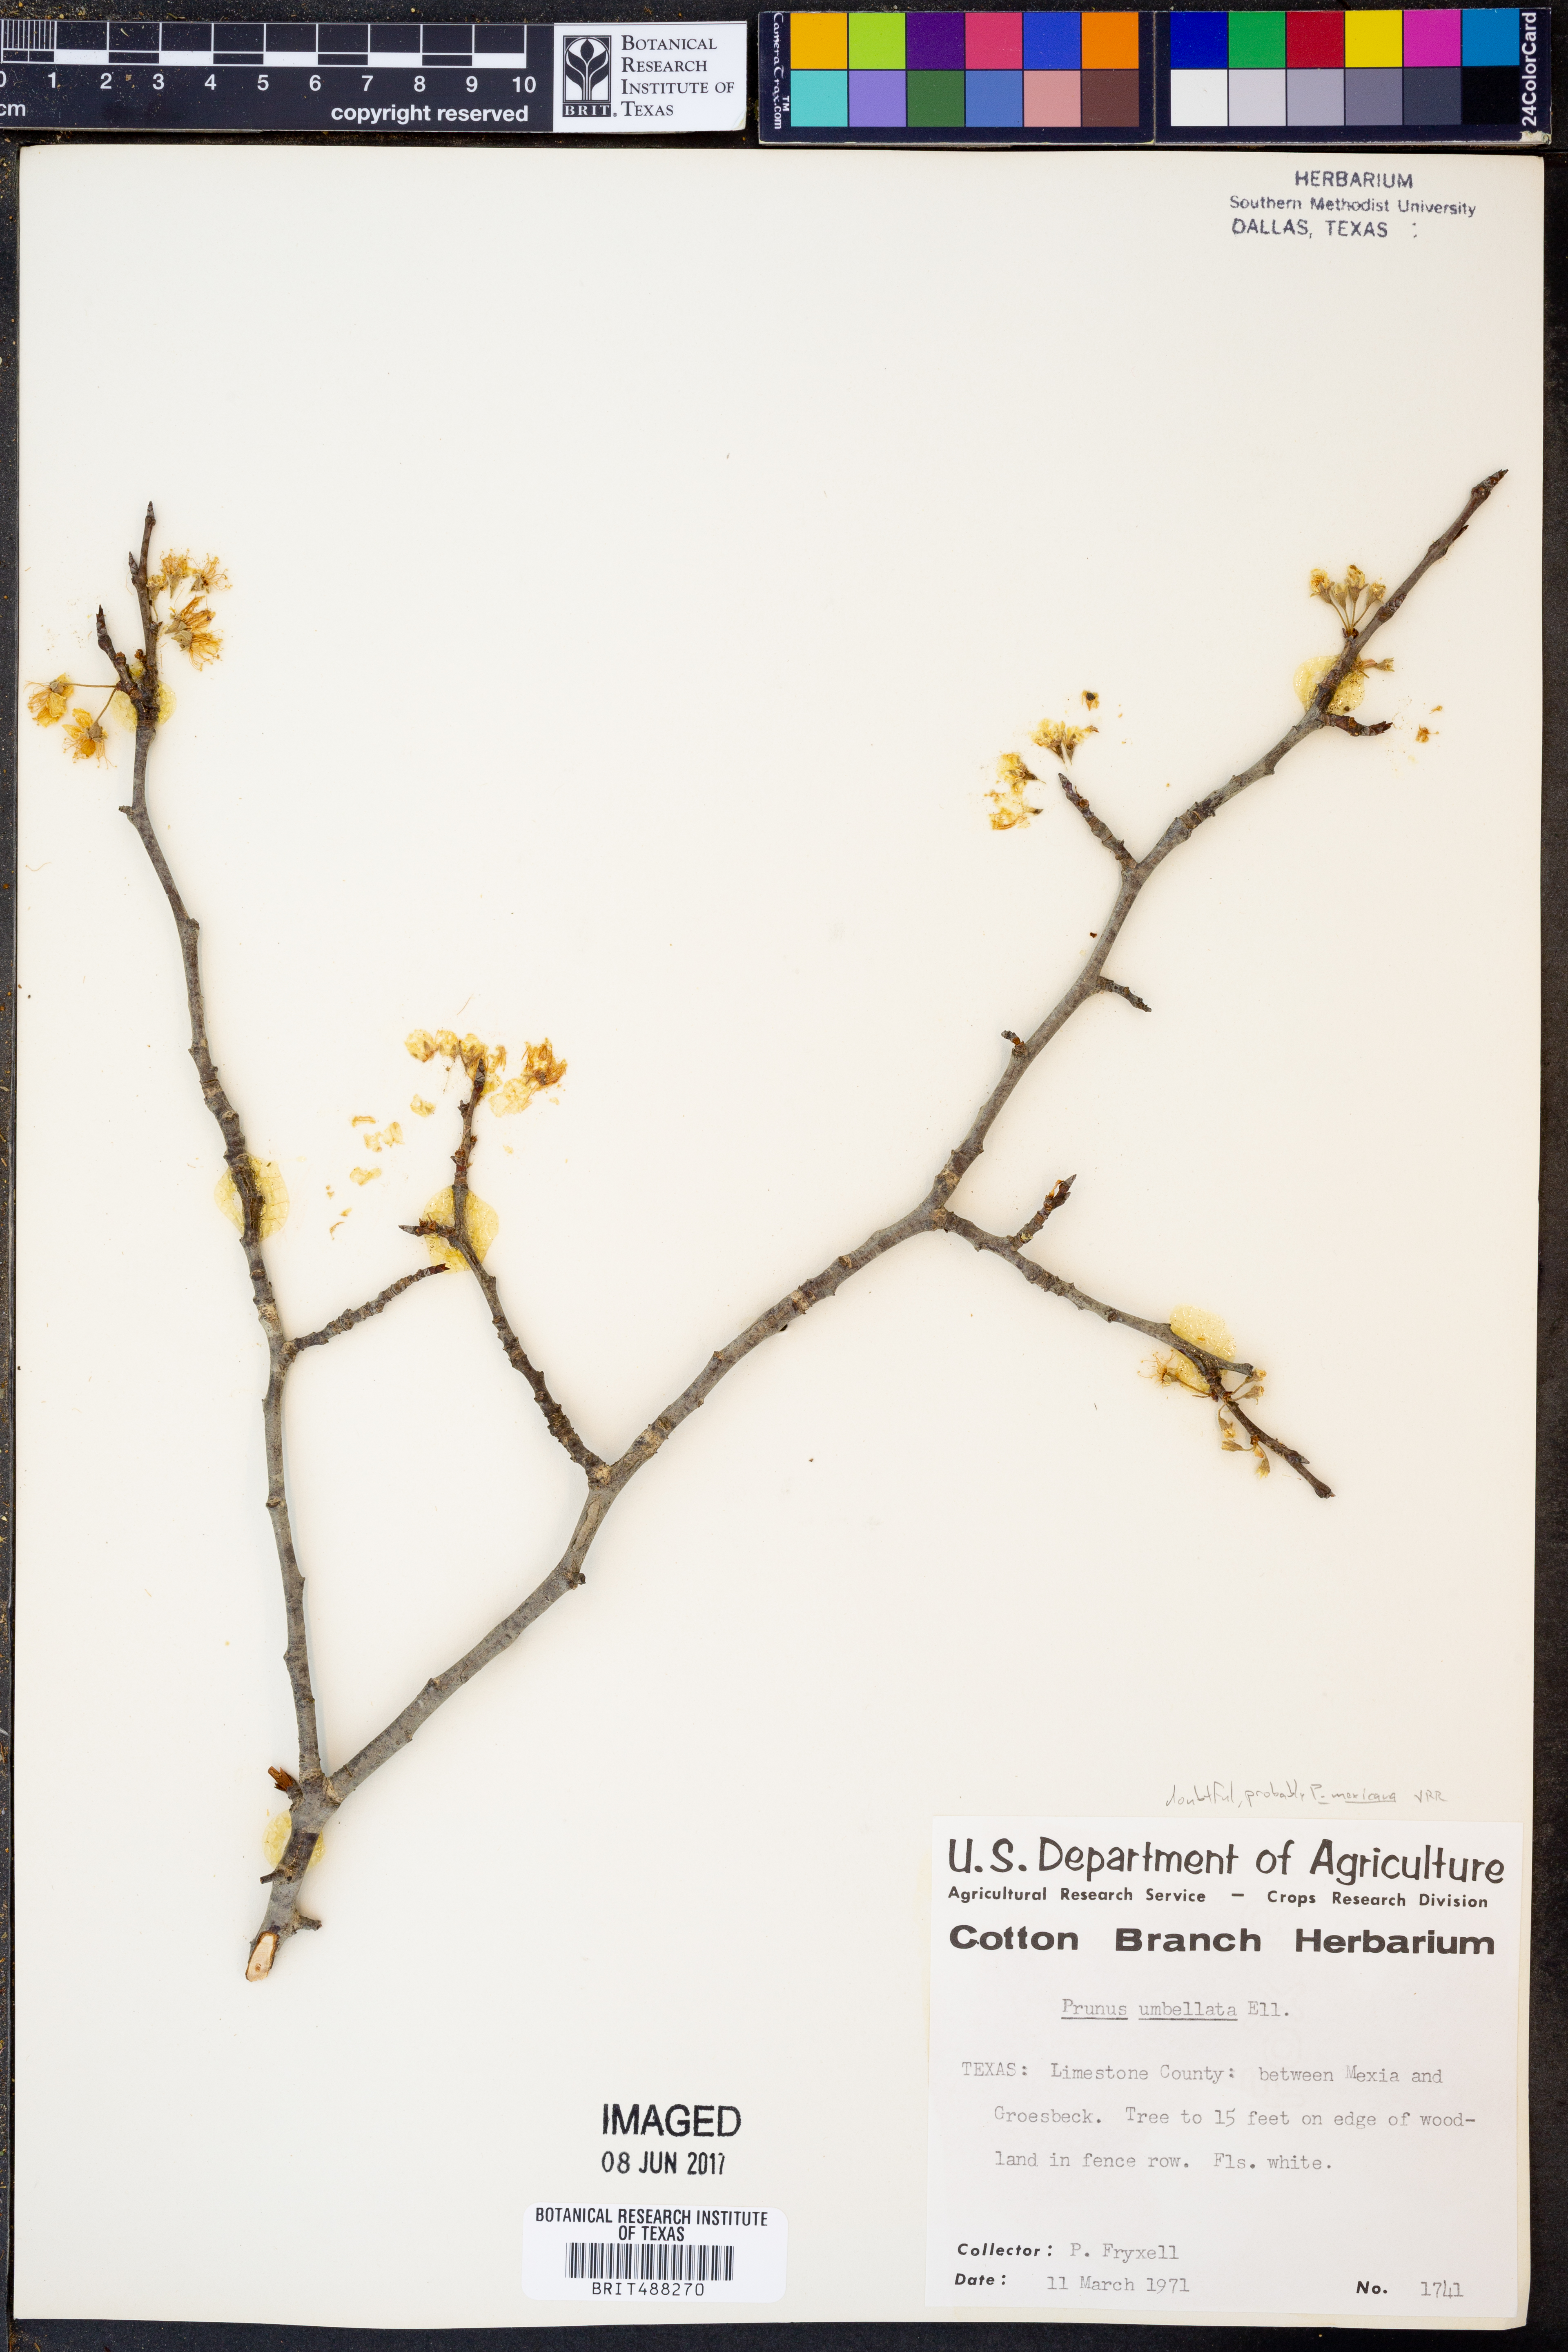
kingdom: Plantae
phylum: Tracheophyta
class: Magnoliopsida
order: Rosales
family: Rosaceae
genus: Prunus
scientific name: Prunus mexicana
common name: Mexican plum
